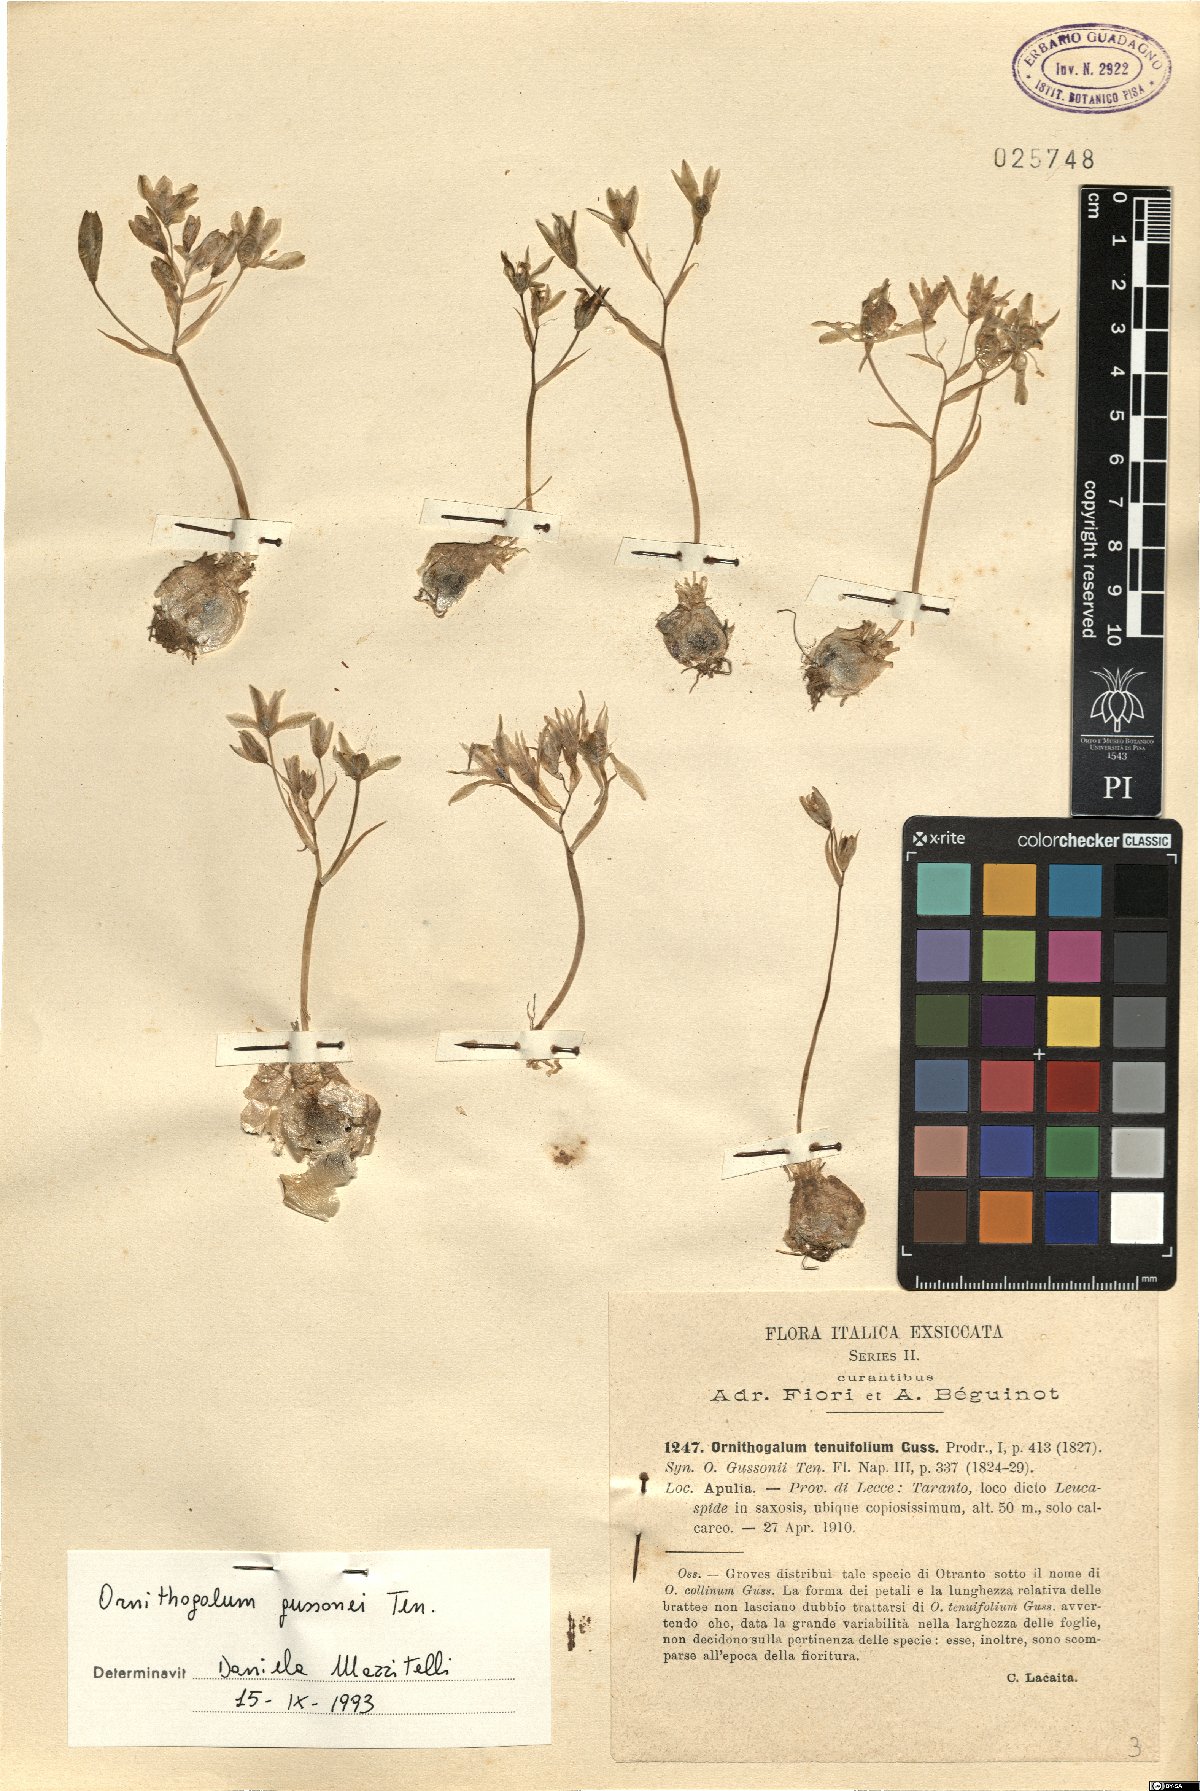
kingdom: Plantae
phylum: Tracheophyta
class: Liliopsida
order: Asparagales
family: Asparagaceae
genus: Ornithogalum
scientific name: Ornithogalum gussonei
